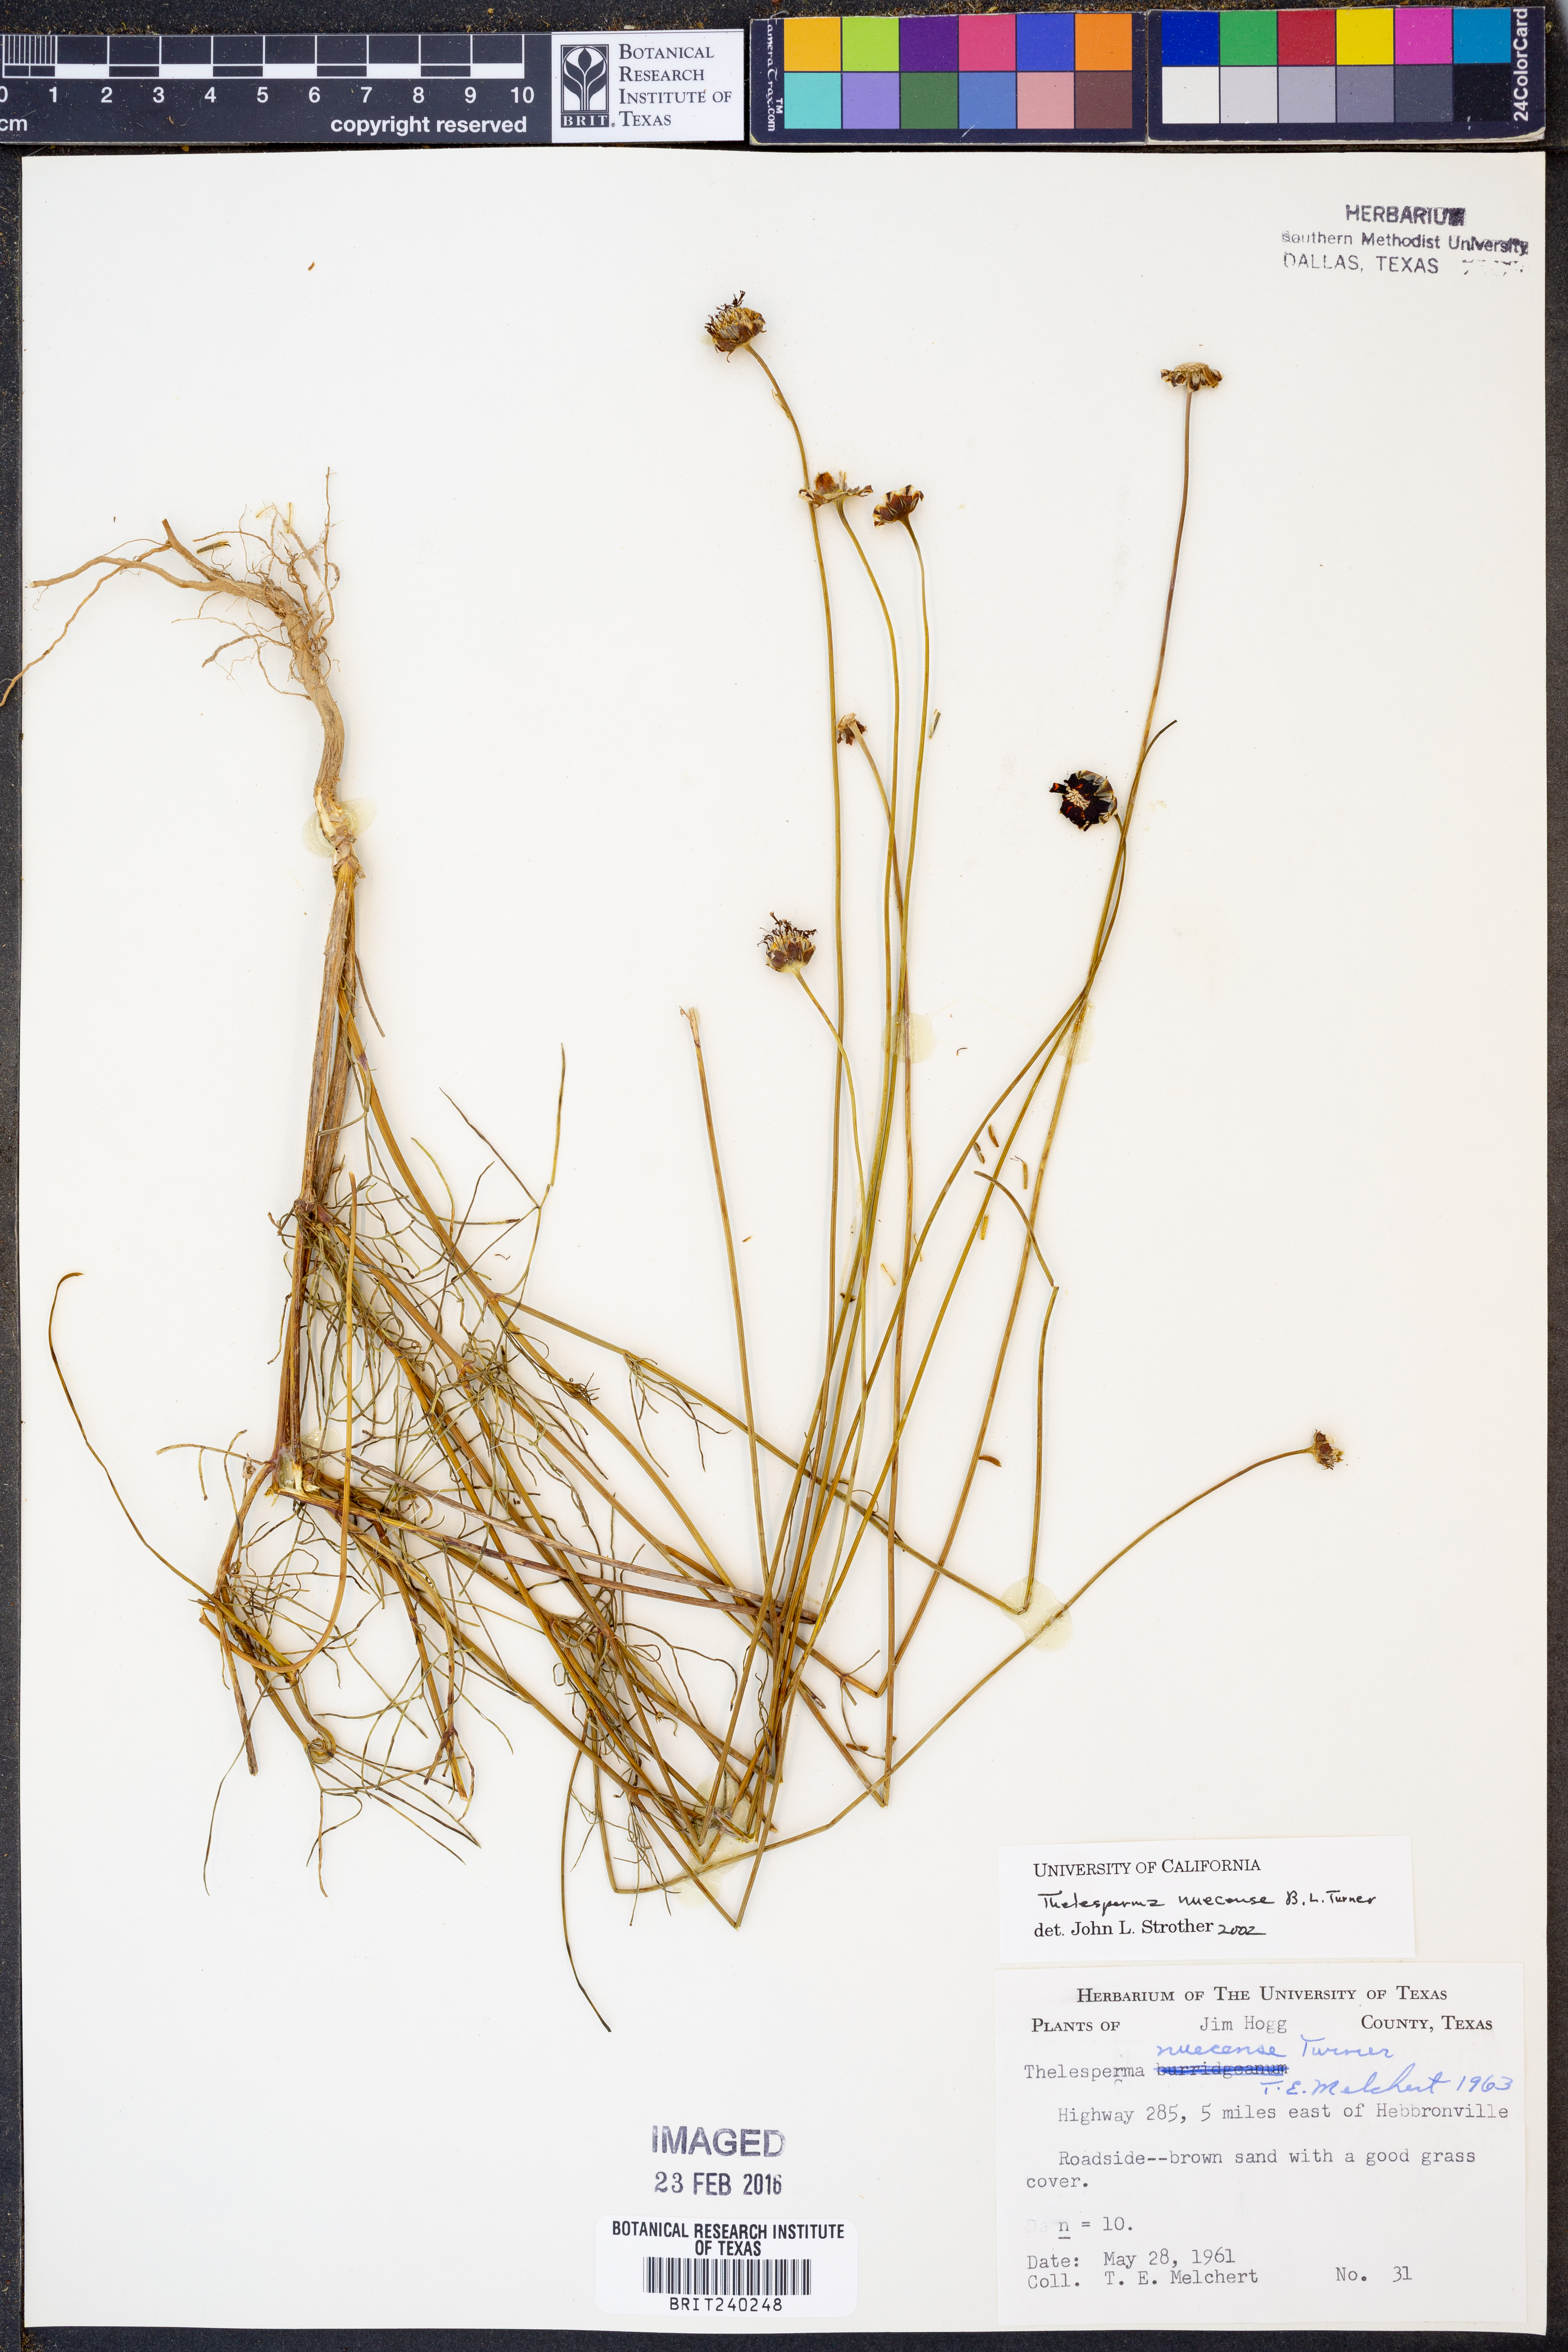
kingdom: Plantae
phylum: Tracheophyta
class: Magnoliopsida
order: Asterales
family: Asteraceae
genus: Thelesperma
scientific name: Thelesperma nuecense
